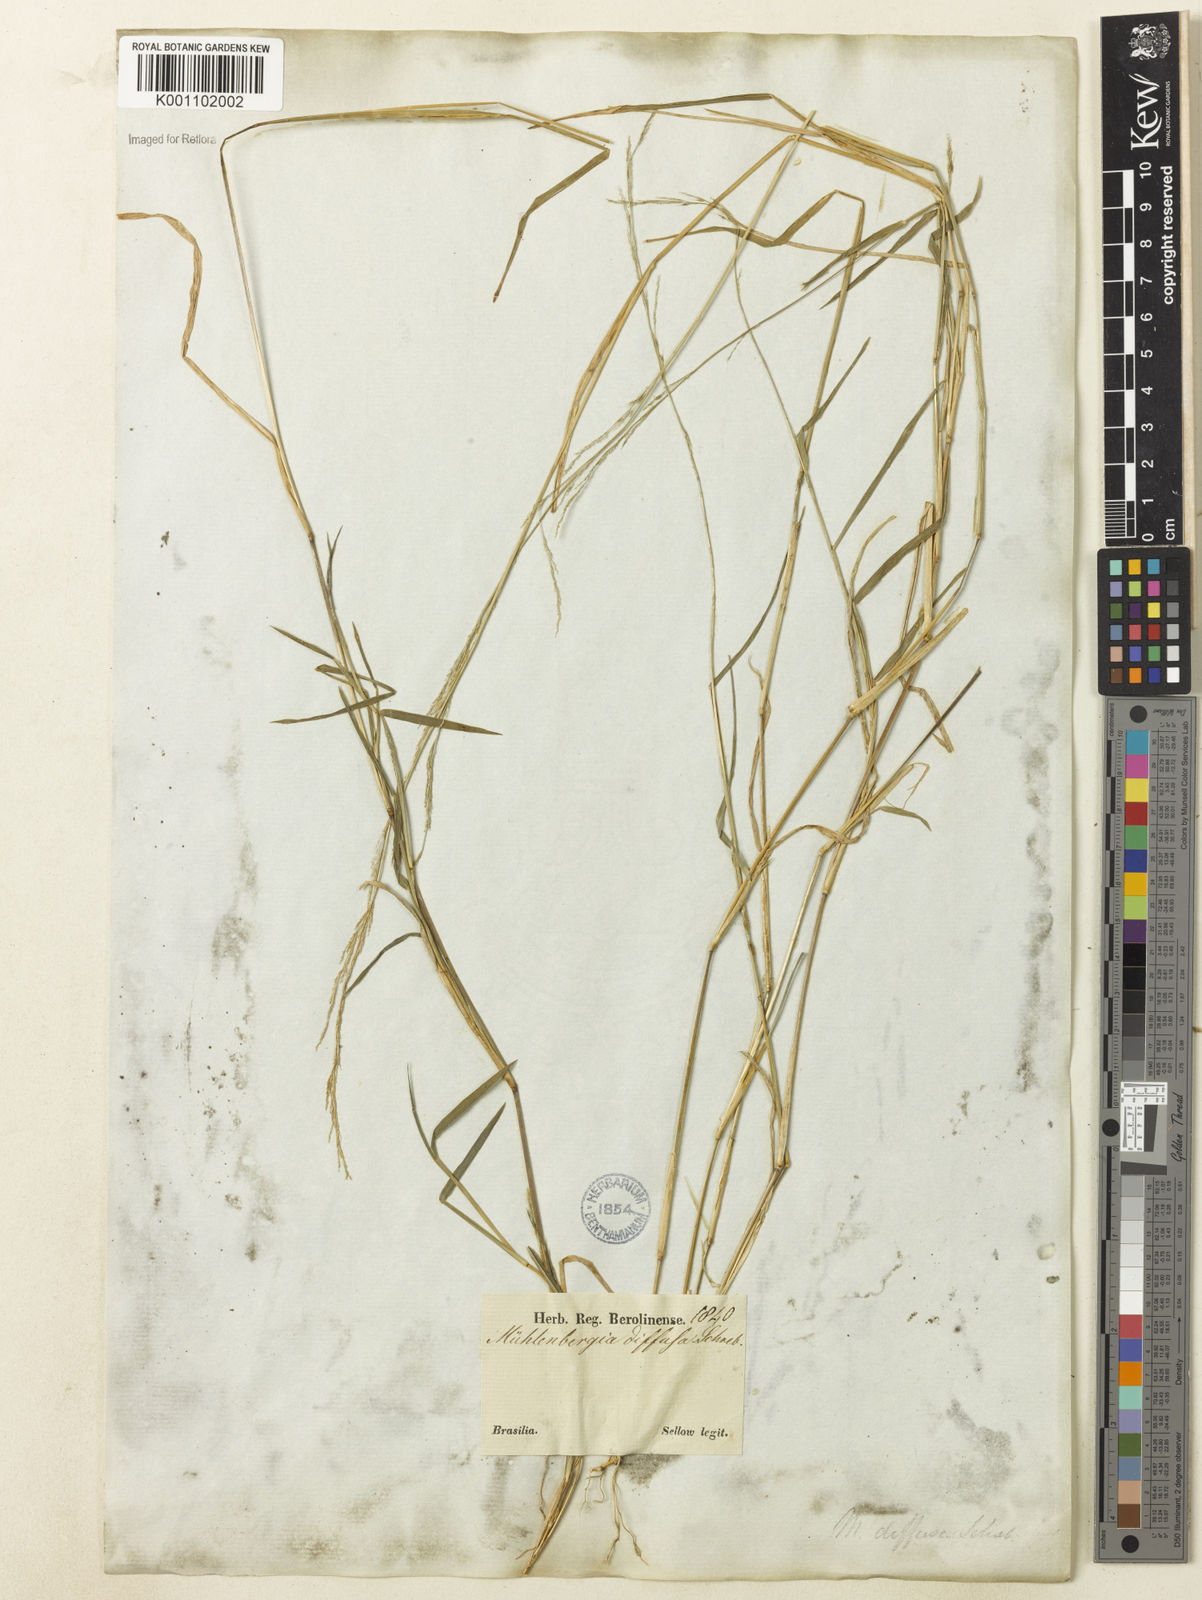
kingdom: Plantae
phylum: Tracheophyta
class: Liliopsida
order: Poales
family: Poaceae
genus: Muhlenbergia
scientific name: Muhlenbergia schreberi
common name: Nimblewill
